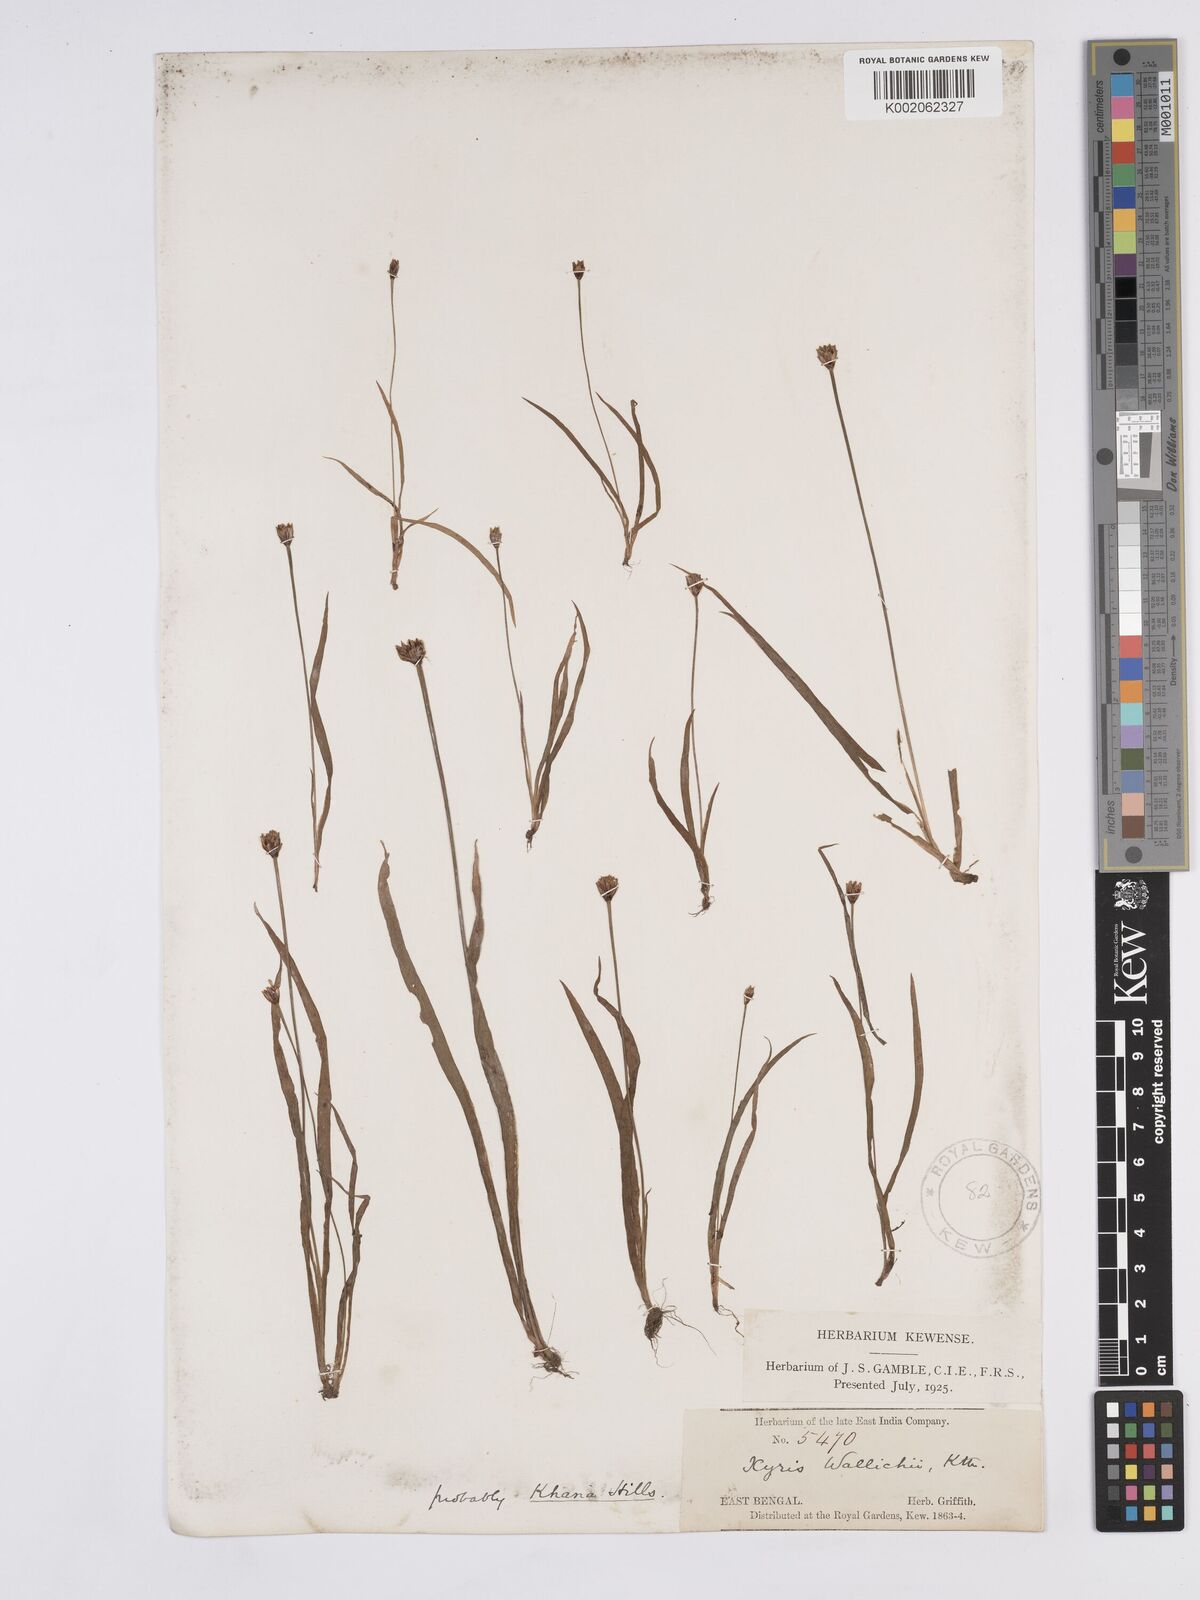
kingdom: Plantae
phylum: Tracheophyta
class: Liliopsida
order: Poales
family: Xyridaceae
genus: Xyris
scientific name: Xyris wallichii
